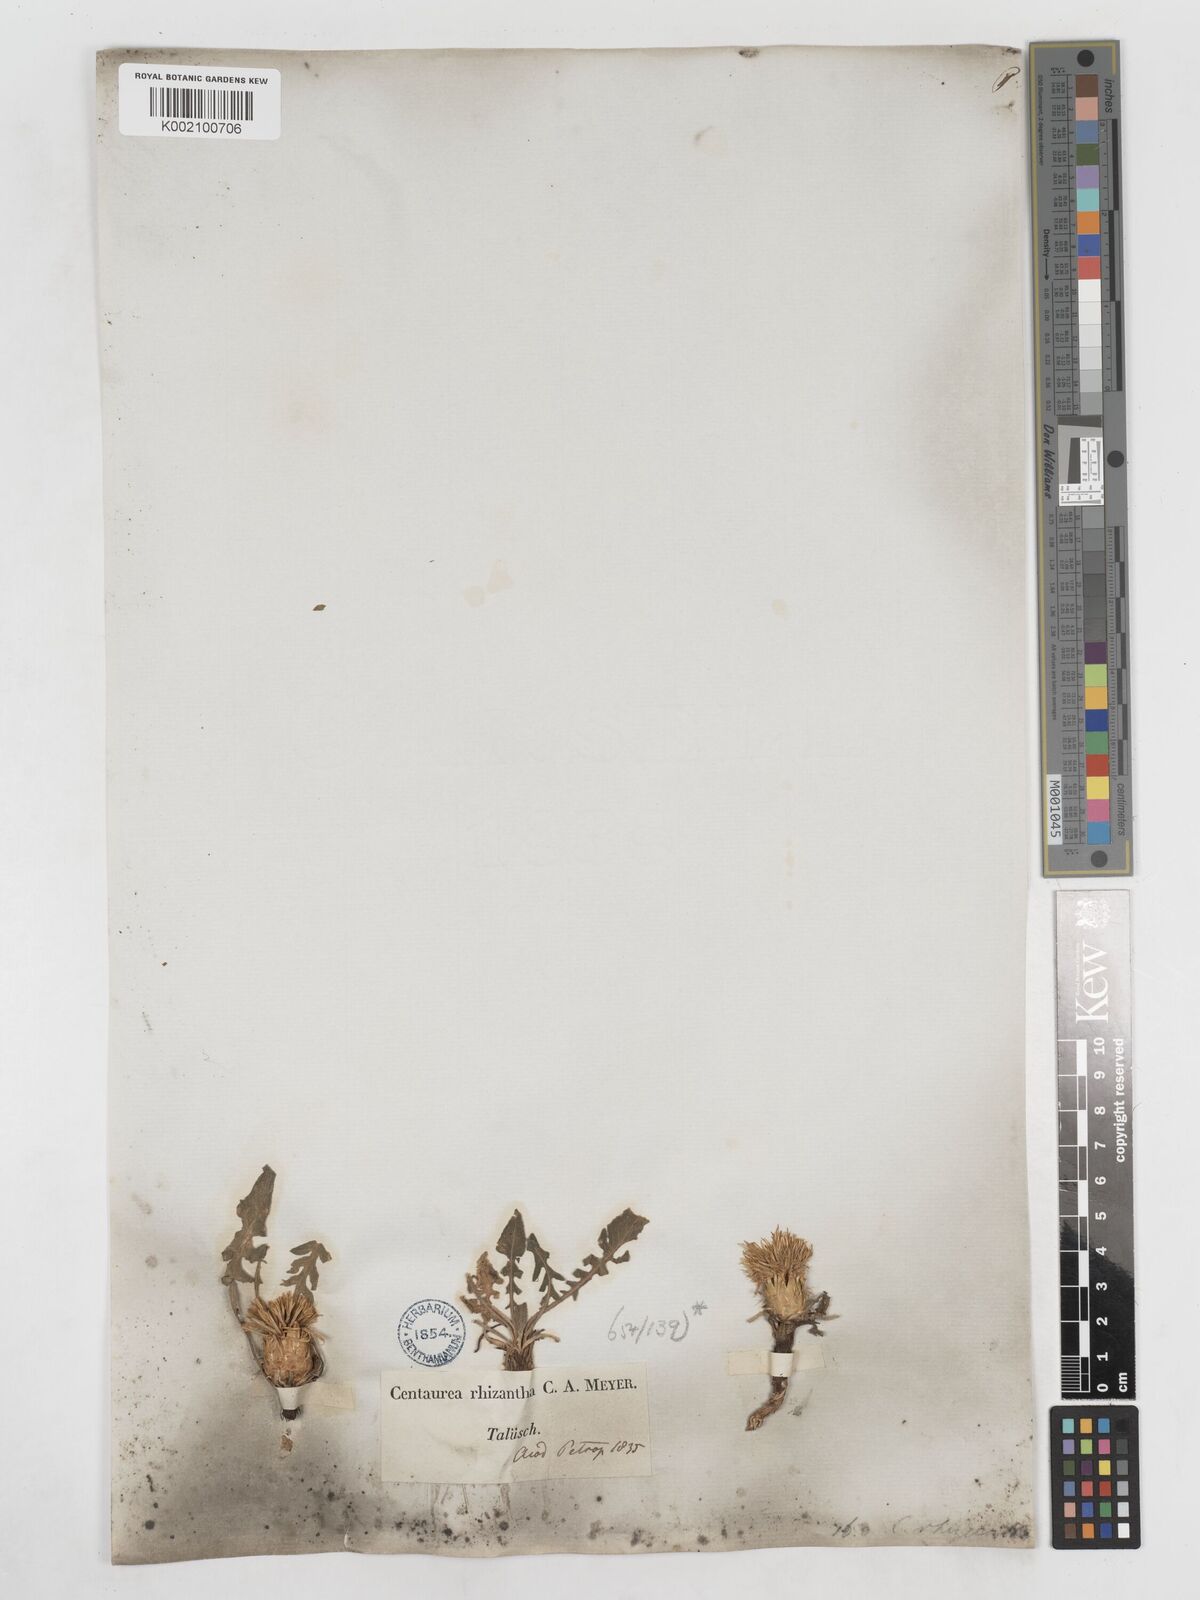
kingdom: Plantae
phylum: Tracheophyta
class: Magnoliopsida
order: Asterales
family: Asteraceae
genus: Centaurea
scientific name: Centaurea rhizantha
